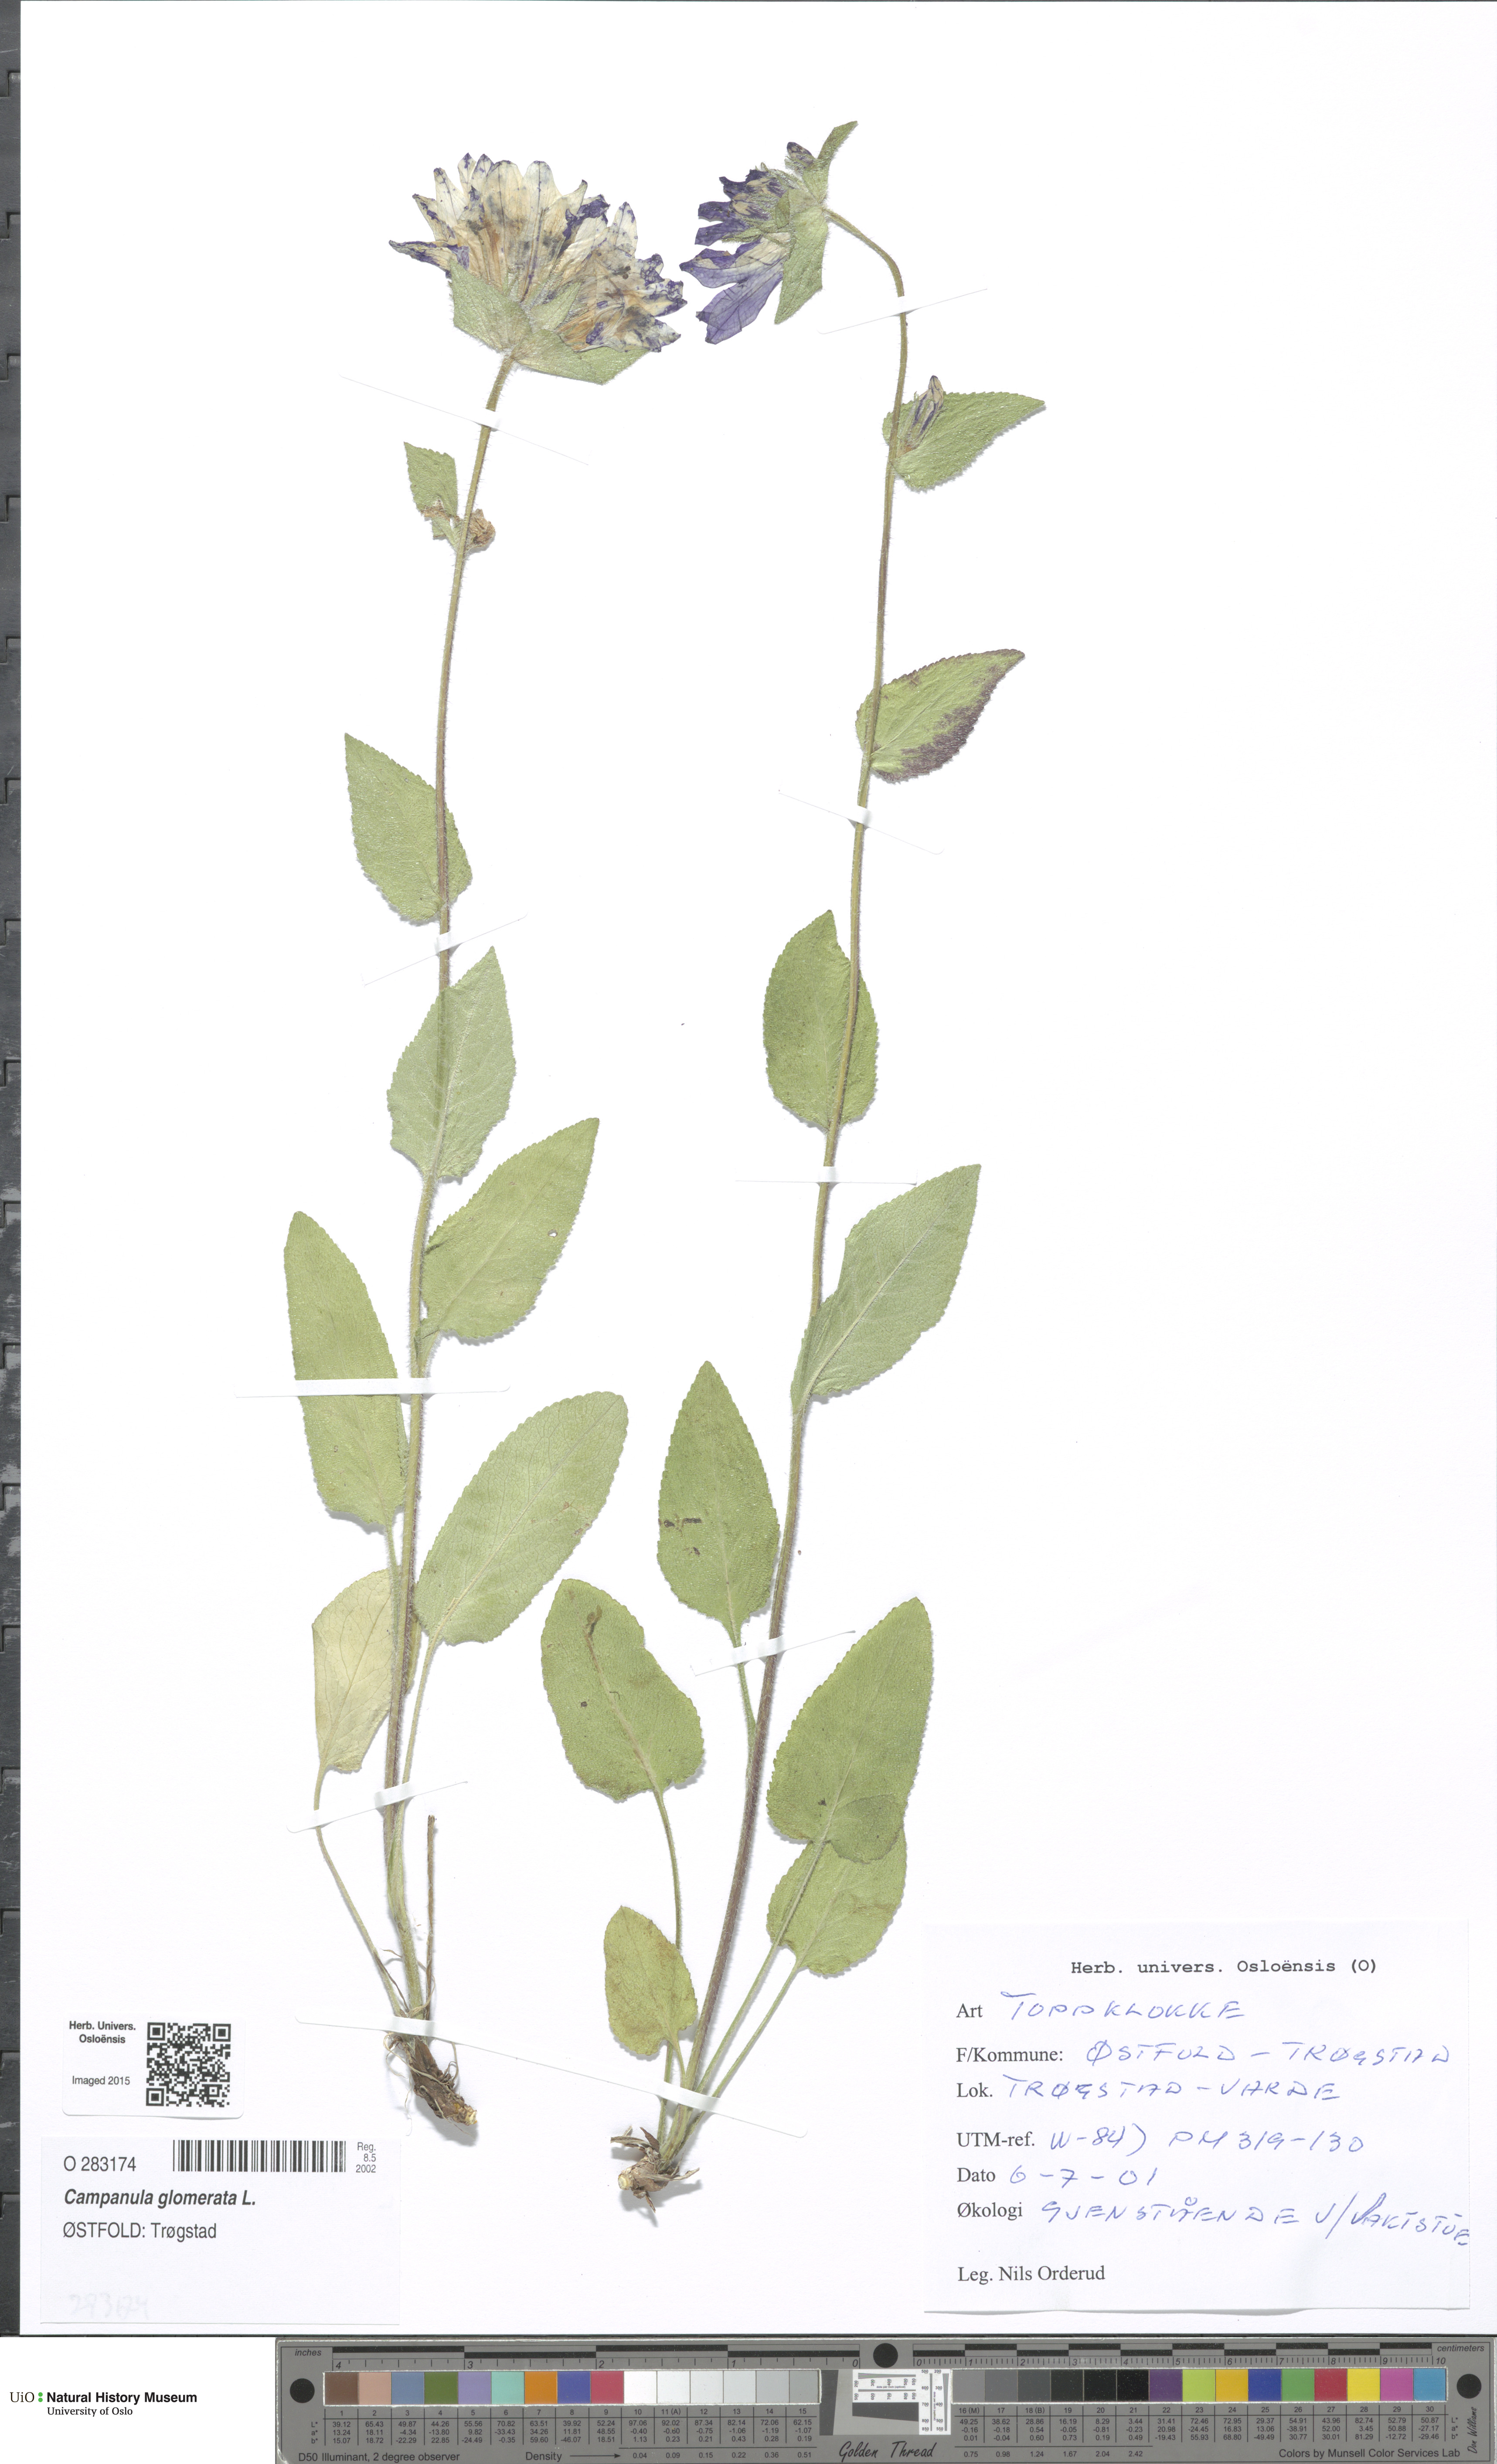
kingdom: Plantae
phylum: Tracheophyta
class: Magnoliopsida
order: Asterales
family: Campanulaceae
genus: Campanula
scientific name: Campanula glomerata
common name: Clustered bellflower
